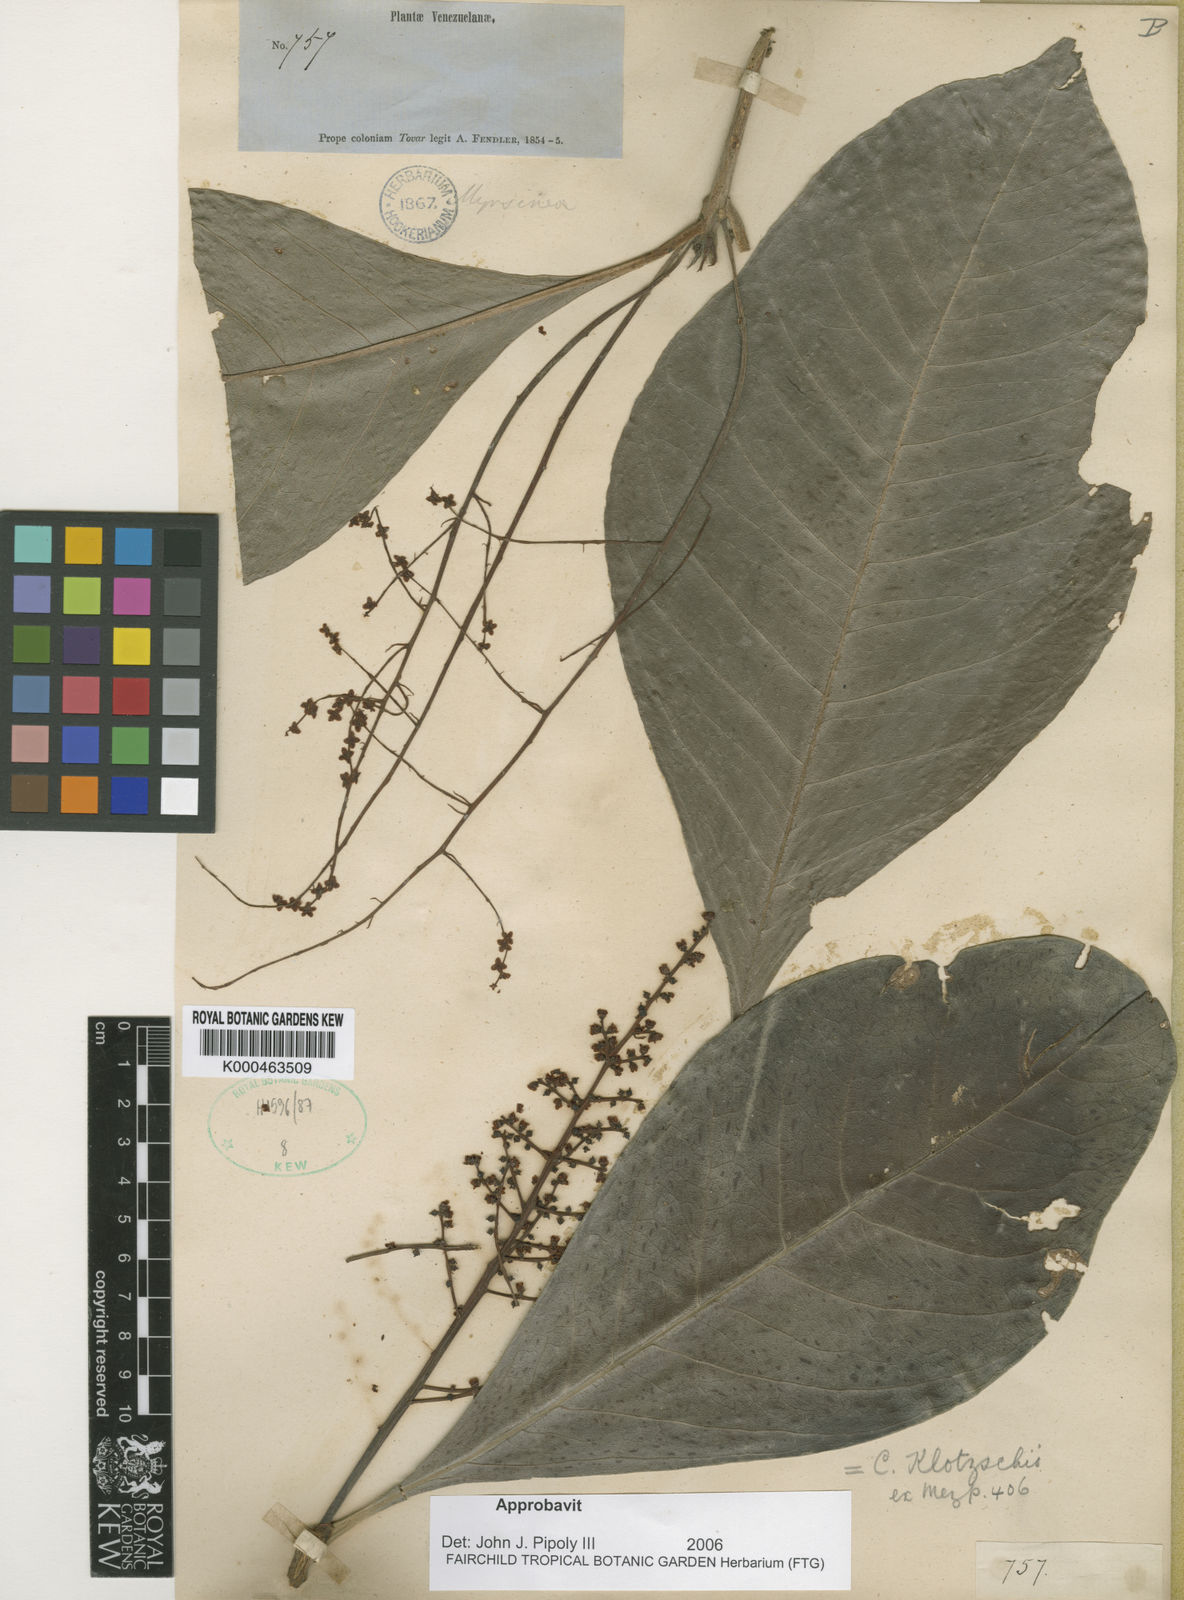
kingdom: Plantae
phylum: Tracheophyta
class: Magnoliopsida
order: Ericales
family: Primulaceae
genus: Cybianthus
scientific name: Cybianthus klotzschii
